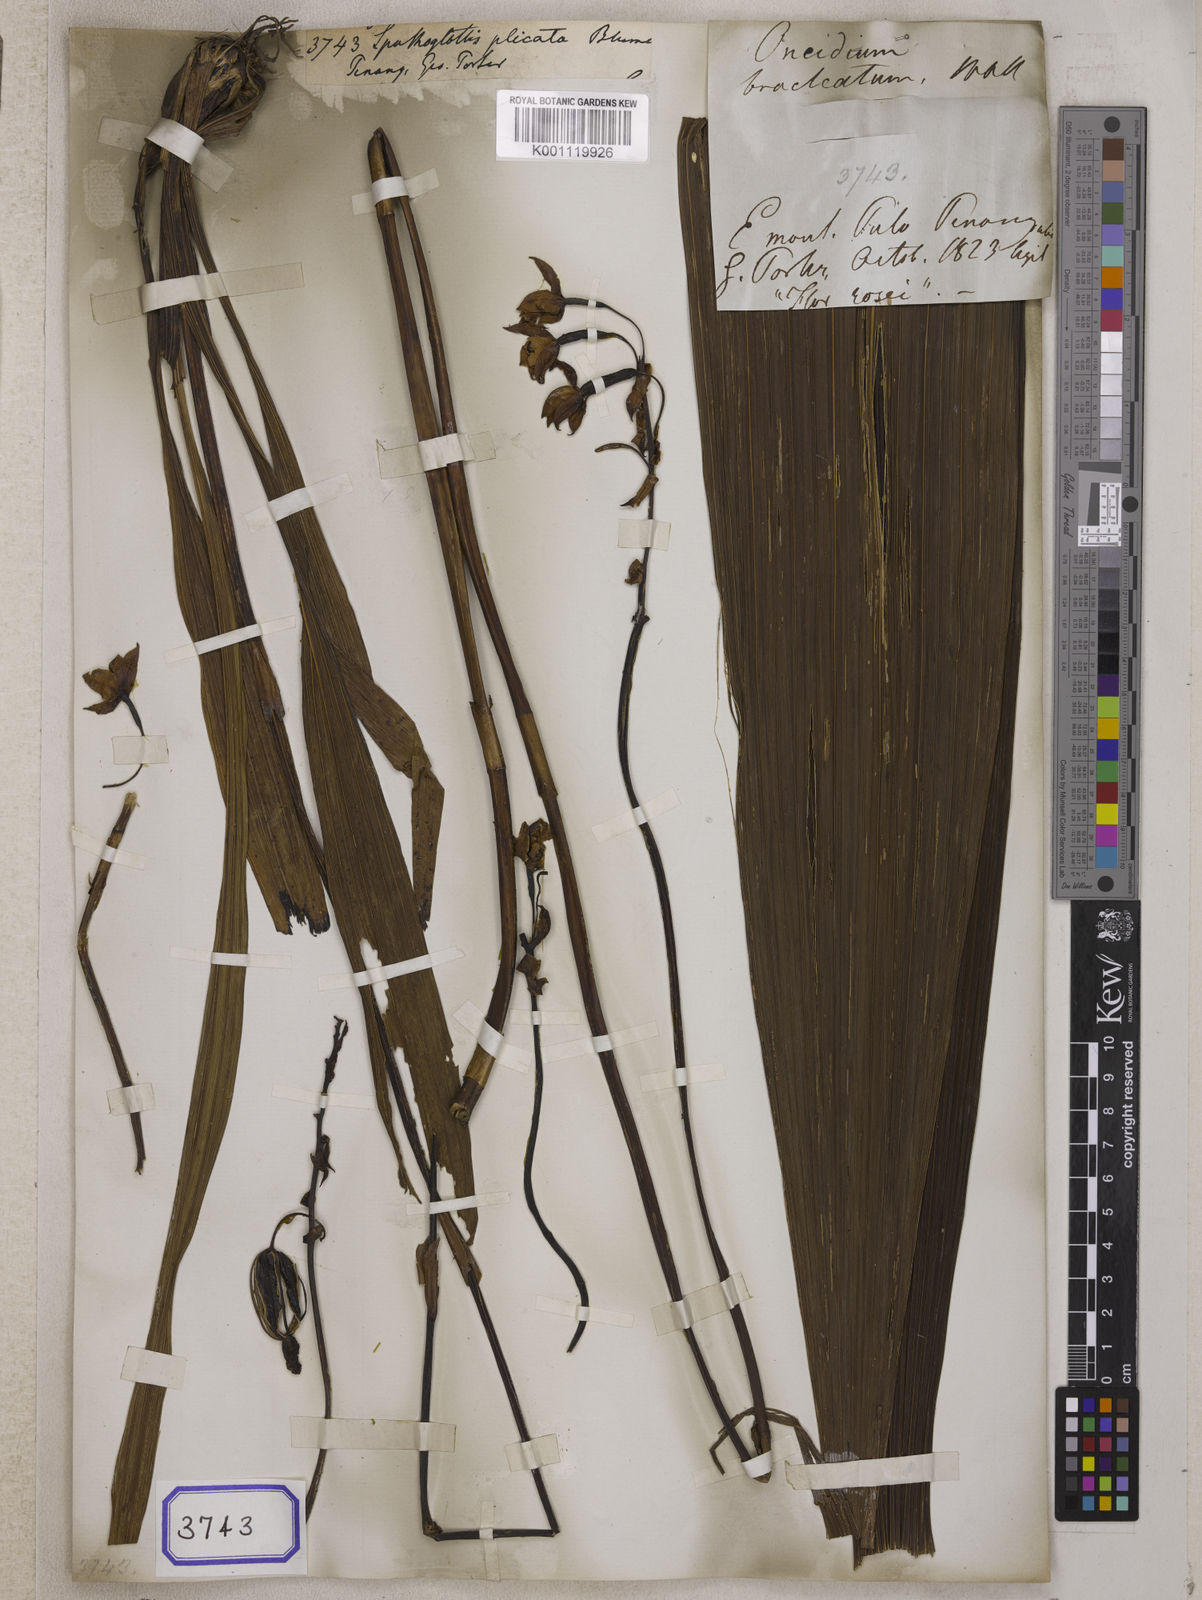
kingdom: Plantae
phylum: Tracheophyta
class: Liliopsida
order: Asparagales
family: Orchidaceae
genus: Spathoglottis
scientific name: Spathoglottis plicata
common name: Philippine ground orchid
